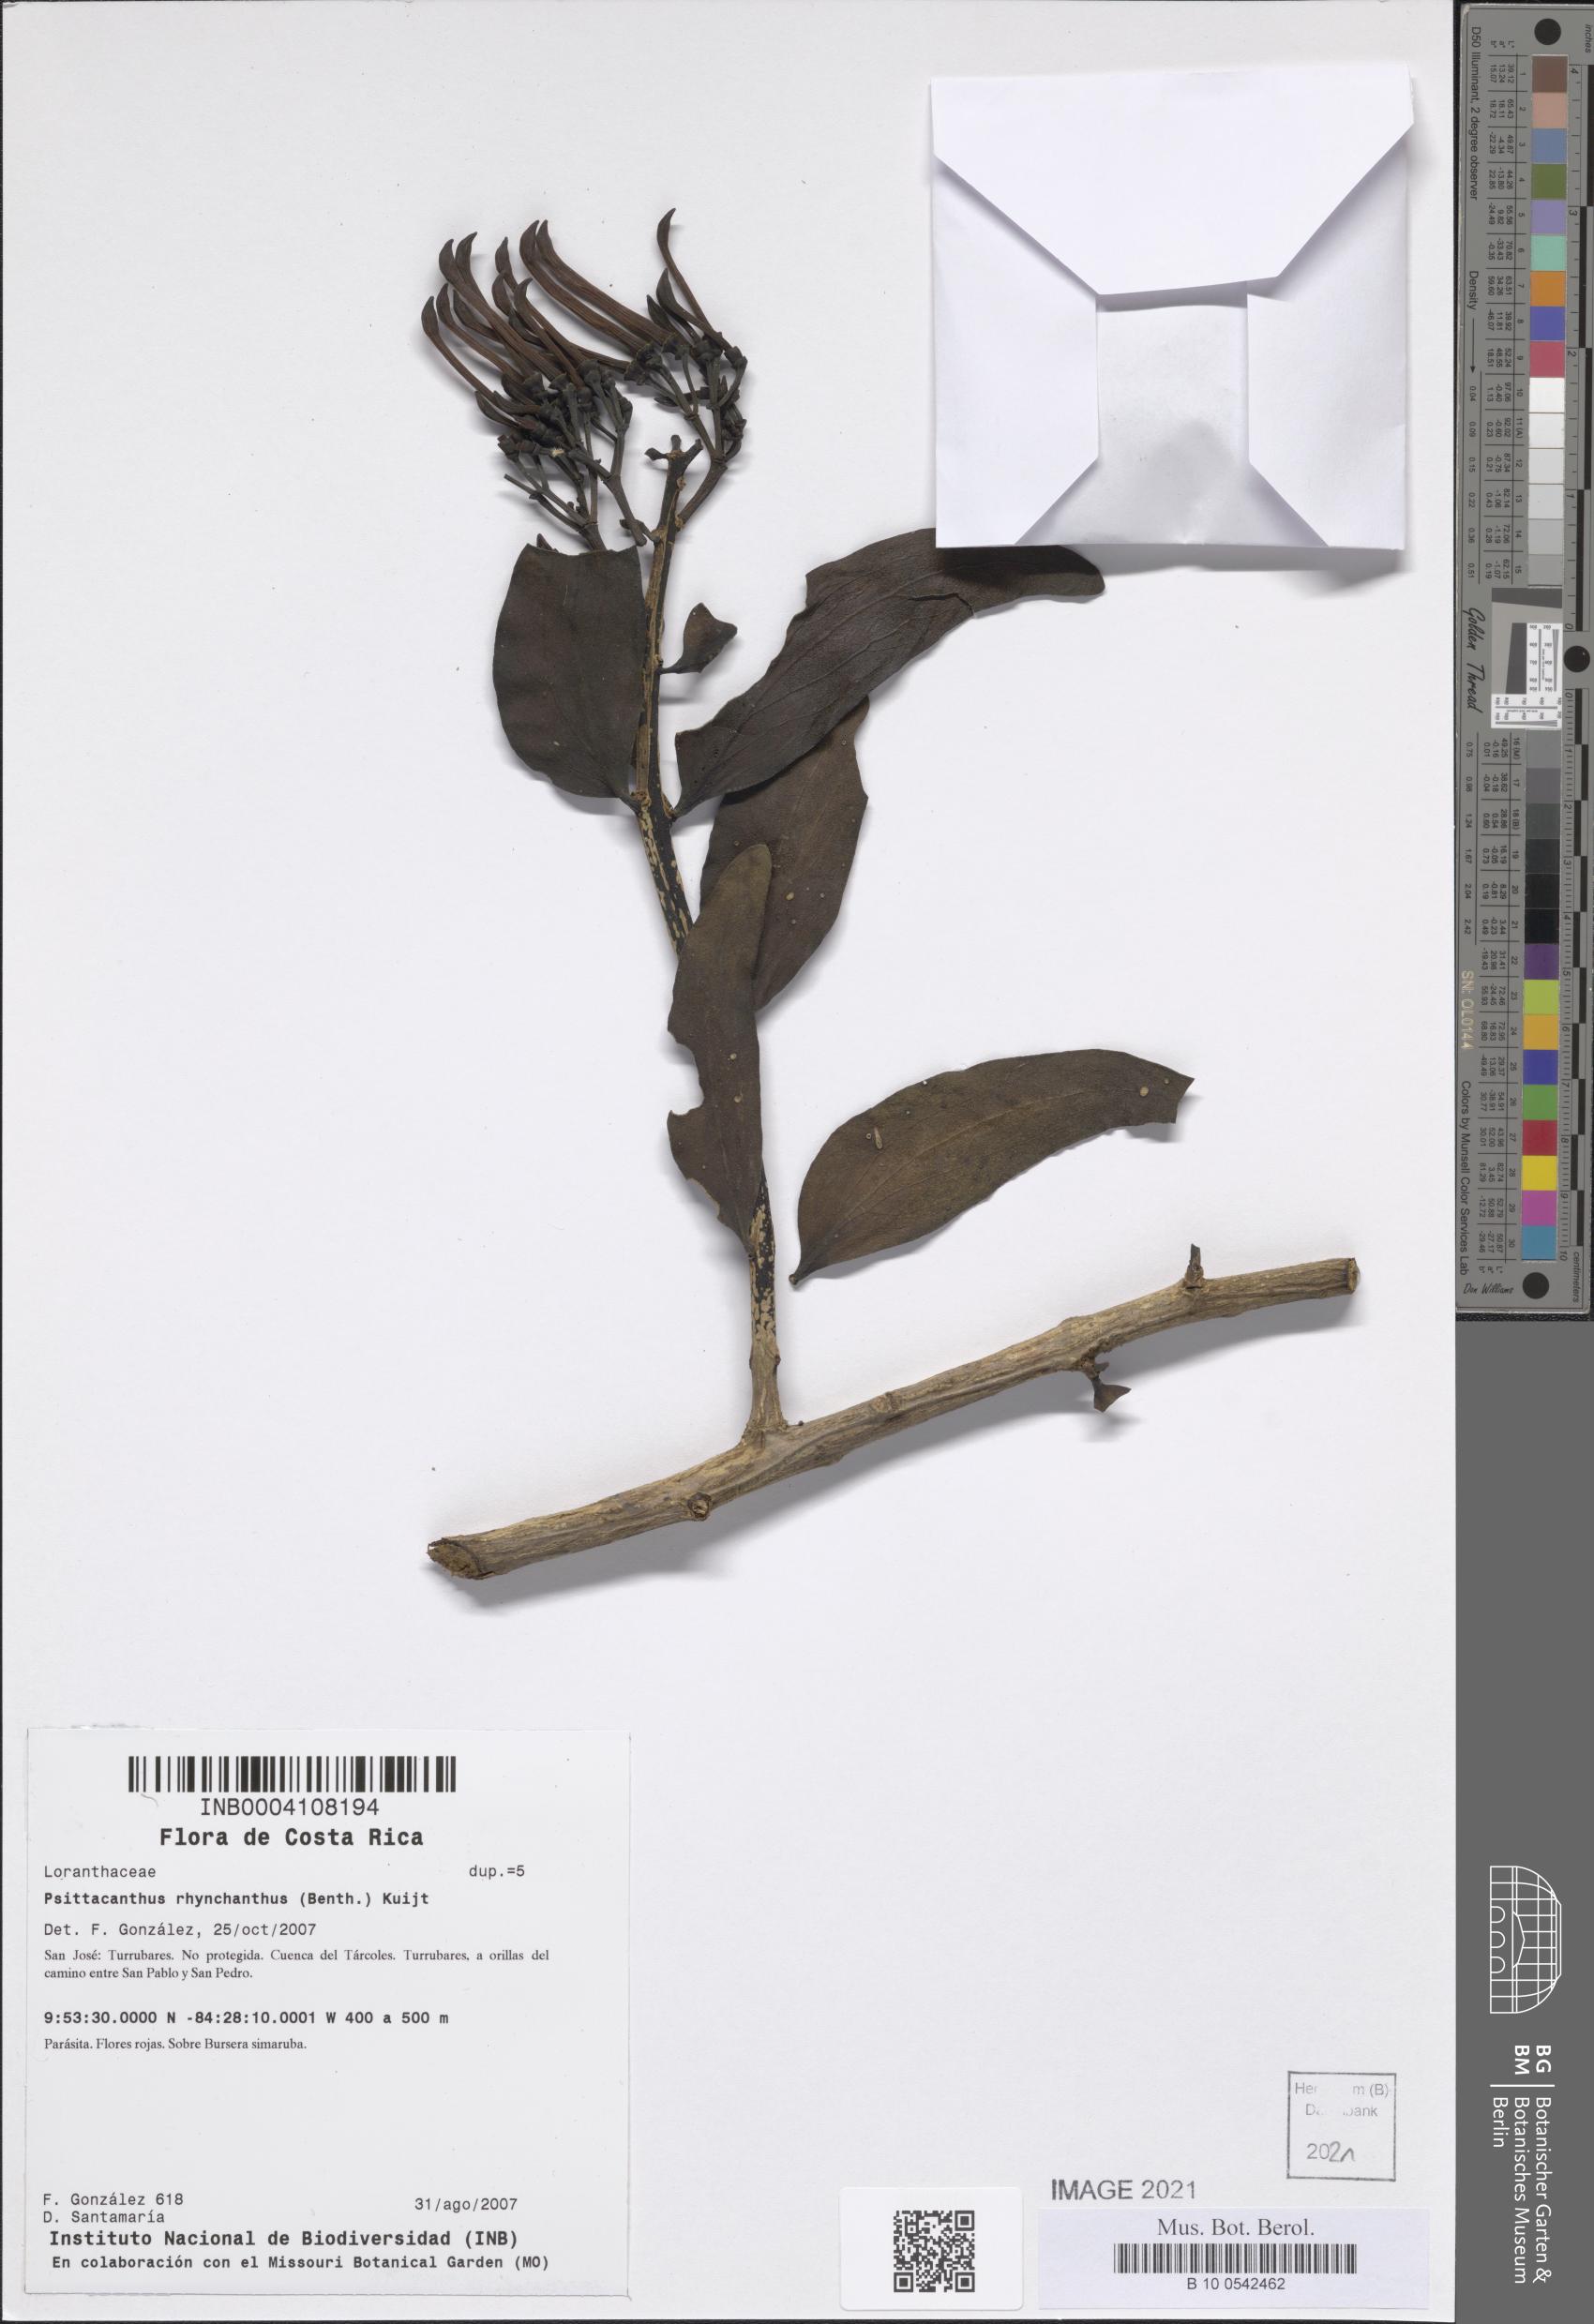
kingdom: Plantae
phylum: Tracheophyta
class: Magnoliopsida
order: Santalales
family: Loranthaceae
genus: Psittacanthus
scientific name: Psittacanthus rhynchanthus
